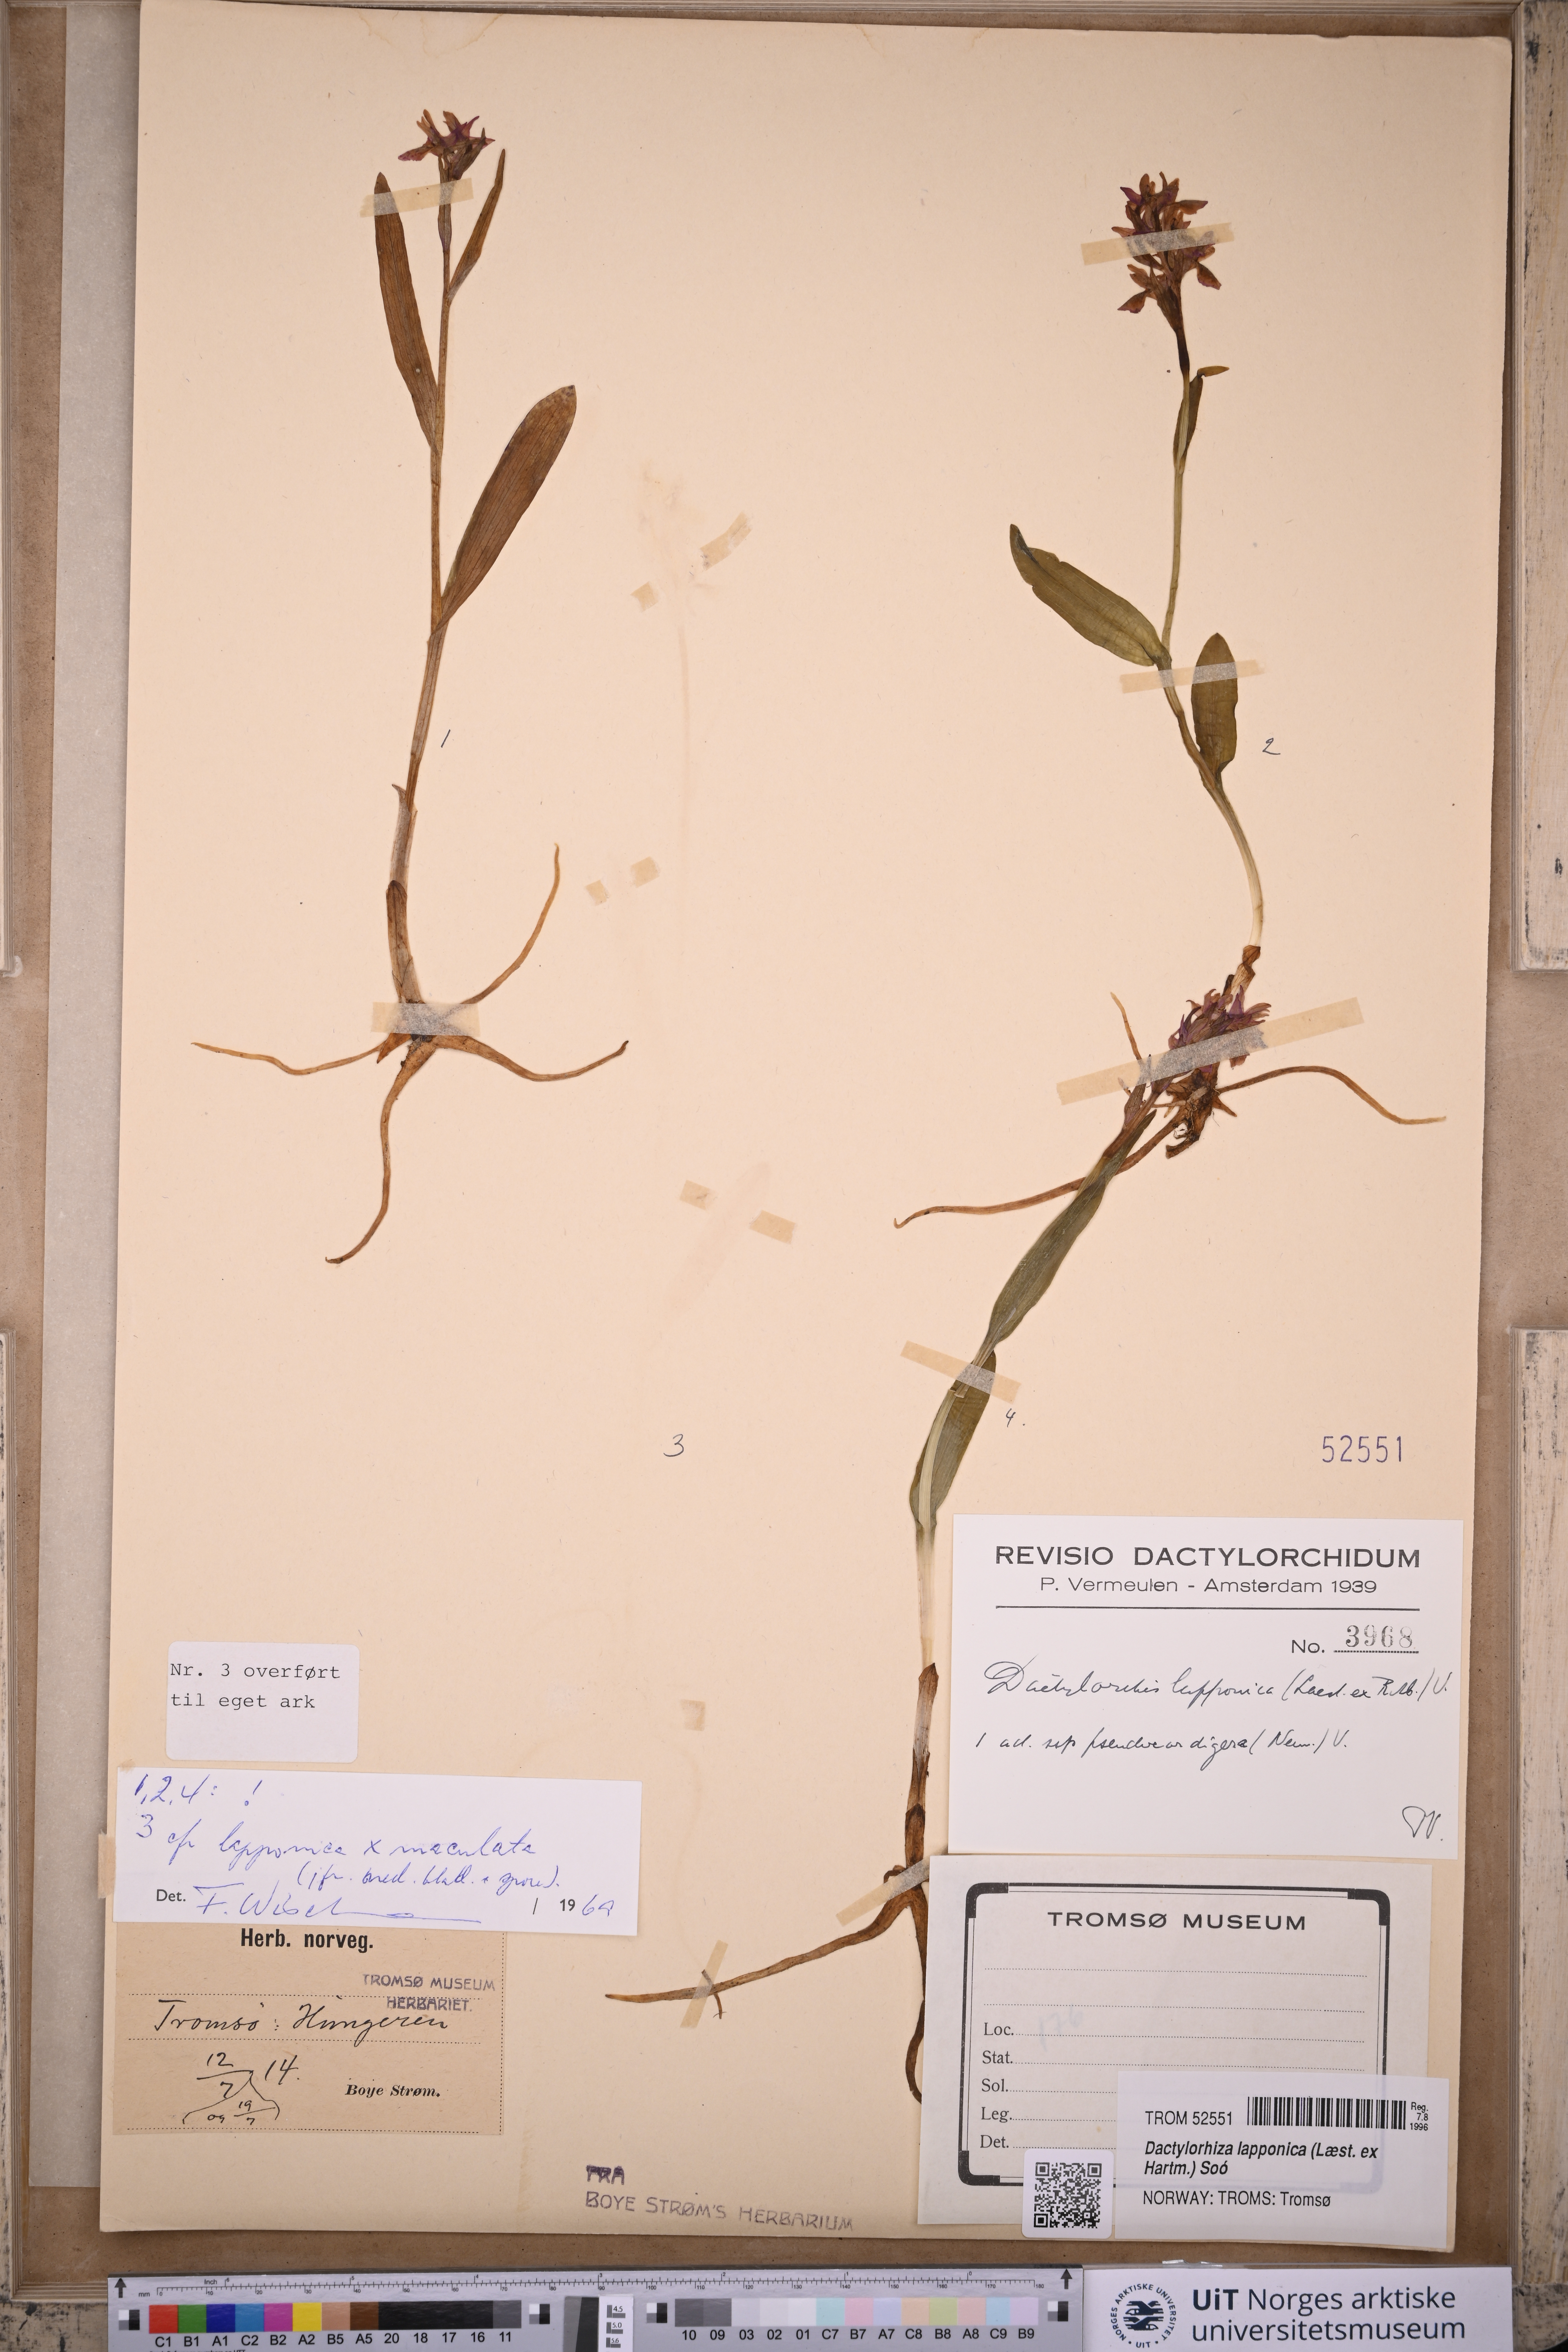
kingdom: Plantae
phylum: Tracheophyta
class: Liliopsida
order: Asparagales
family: Orchidaceae
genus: Dactylorhiza
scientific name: Dactylorhiza majalis
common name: Marsh orchid
